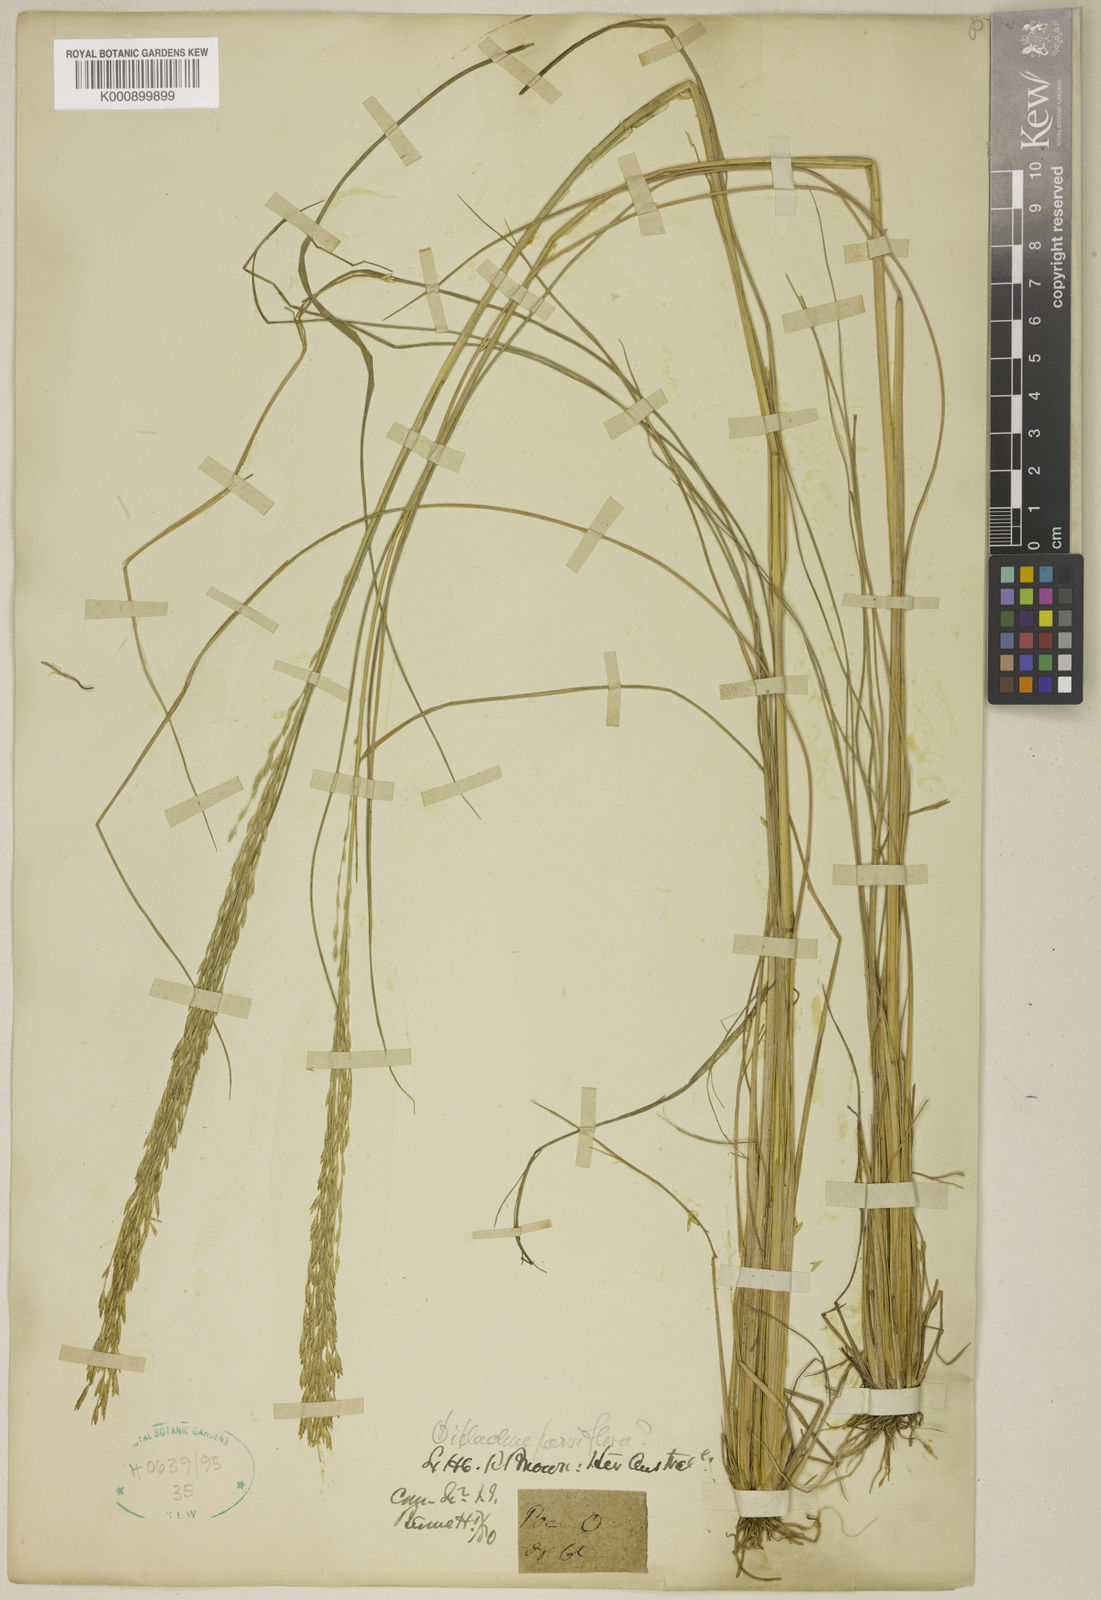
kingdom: Plantae
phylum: Tracheophyta
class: Liliopsida
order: Poales
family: Poaceae
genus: Diplachne
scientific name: Diplachne fusca
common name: Brown beetle grass
